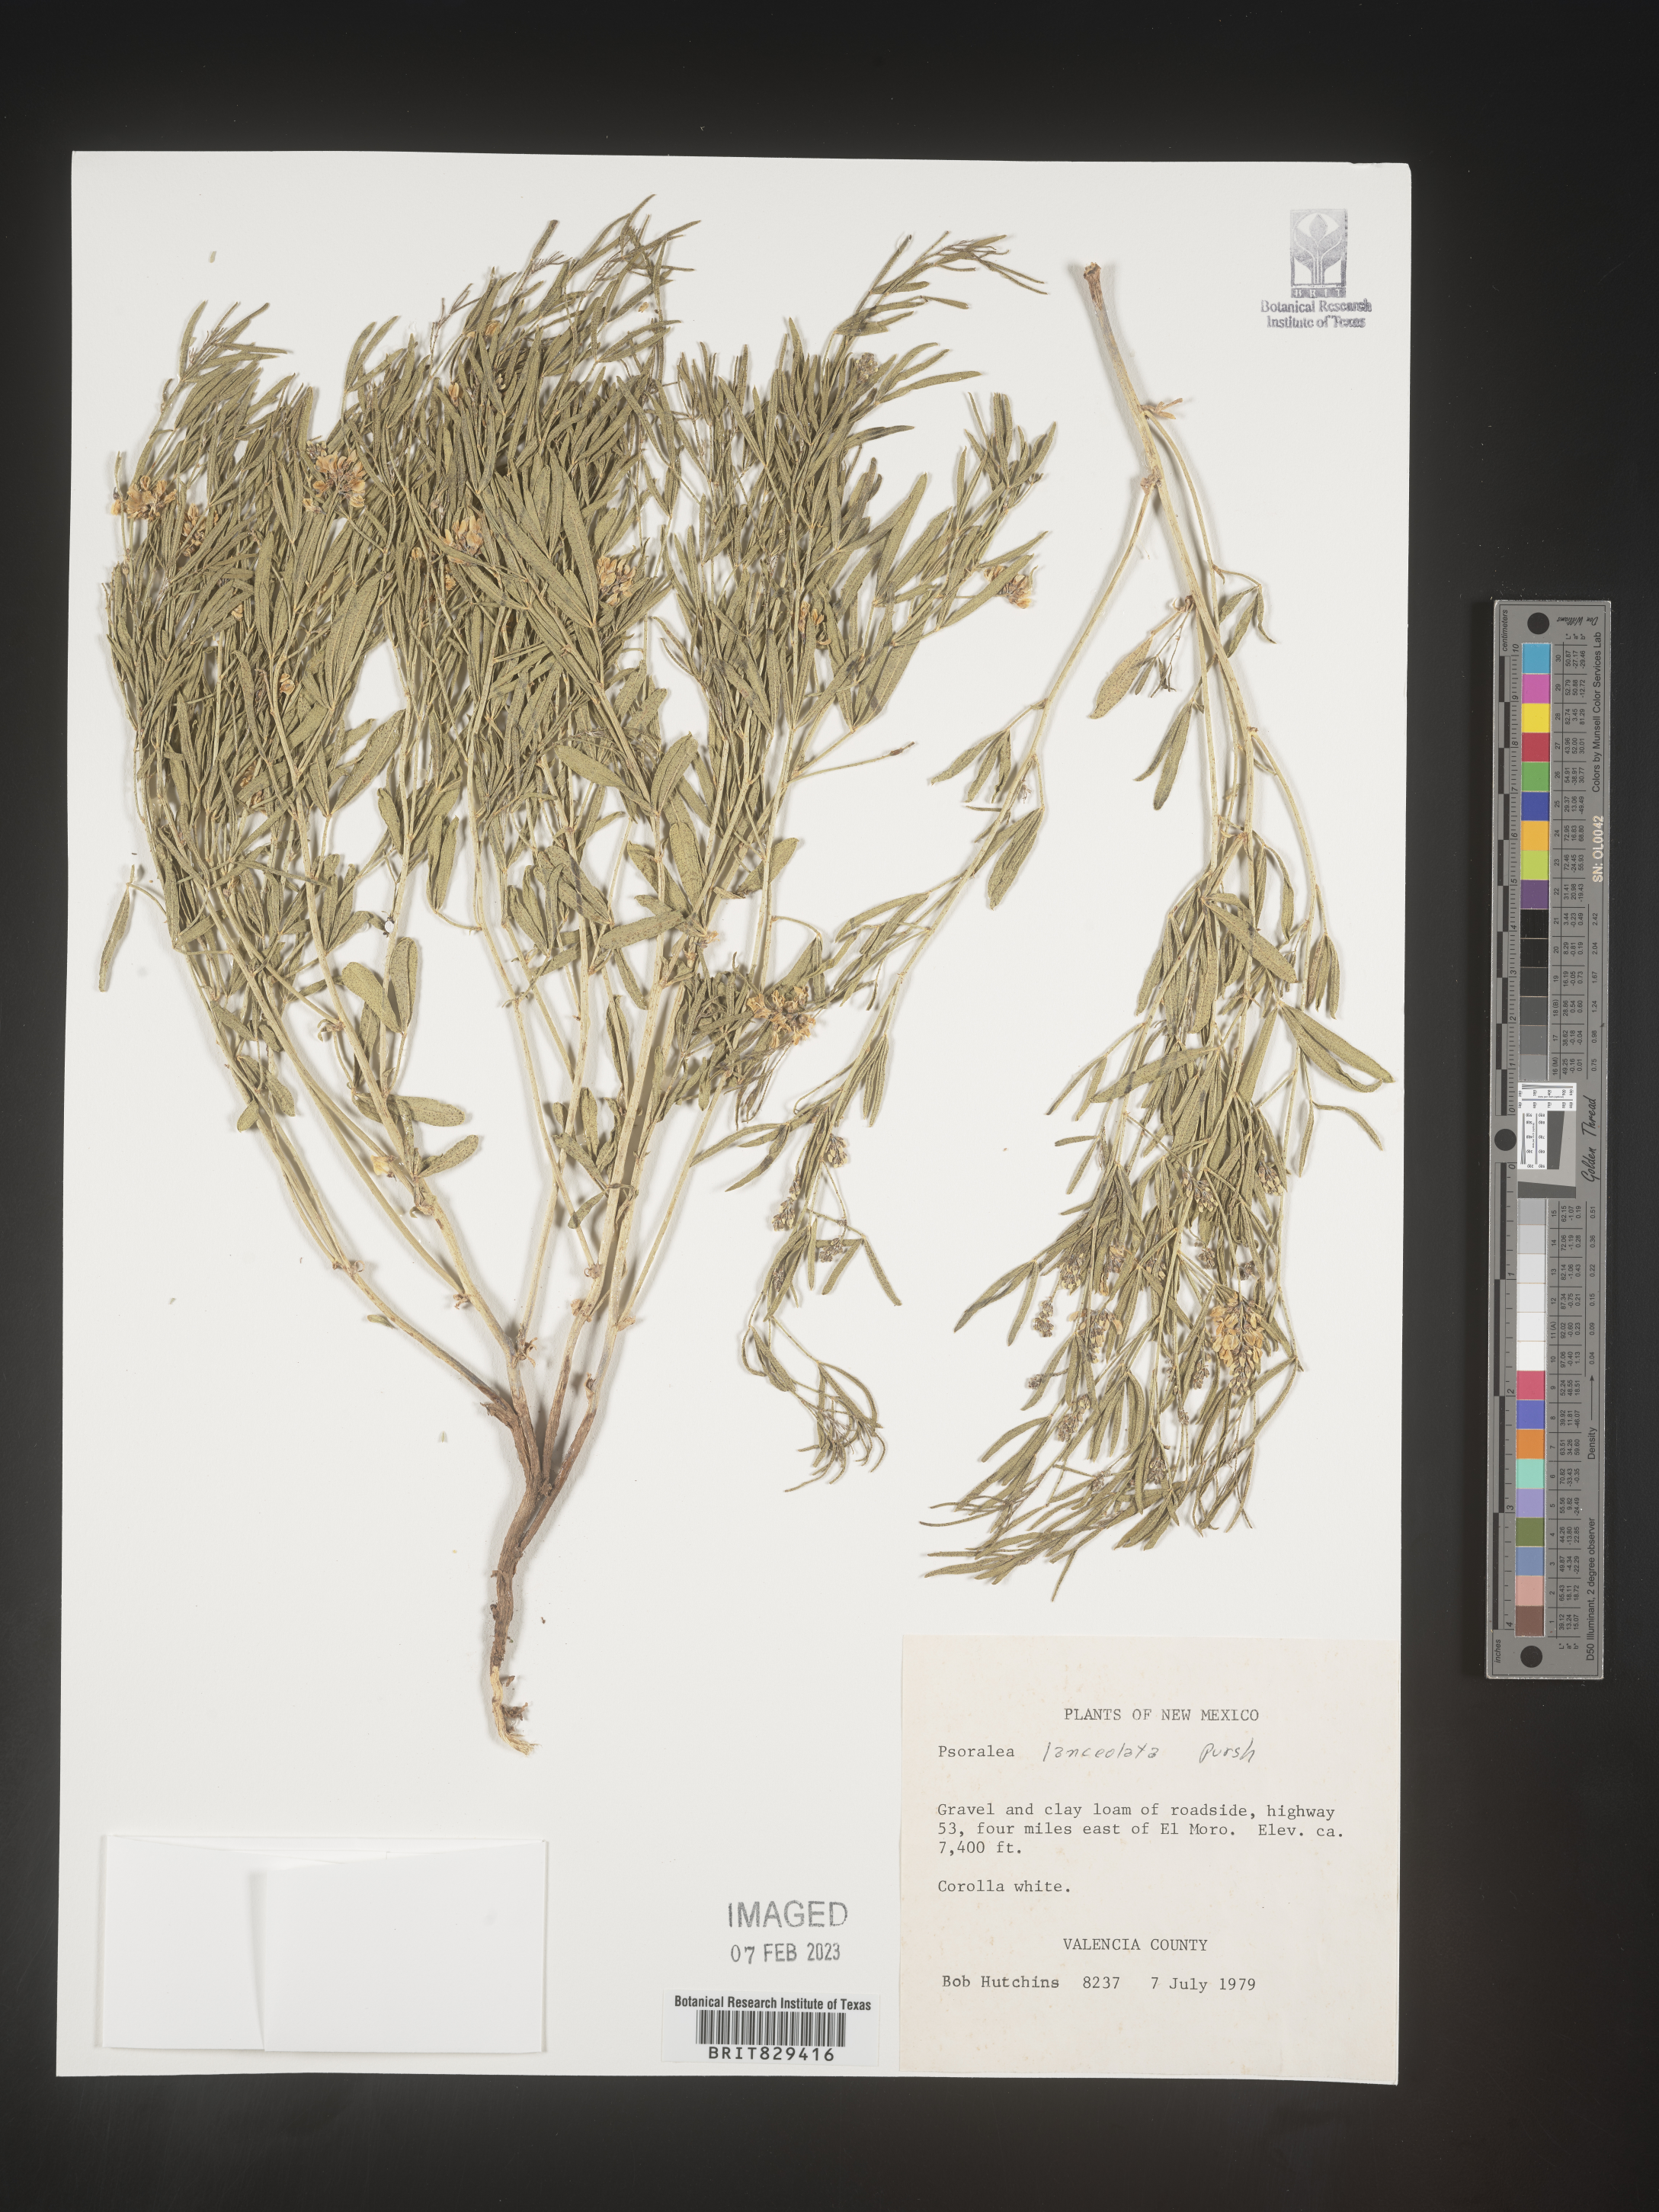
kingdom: Plantae
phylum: Tracheophyta
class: Magnoliopsida
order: Fabales
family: Fabaceae
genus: Psoralea
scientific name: Psoralea
